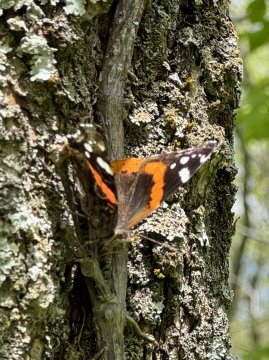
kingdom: Animalia
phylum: Arthropoda
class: Insecta
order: Lepidoptera
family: Nymphalidae
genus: Vanessa
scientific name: Vanessa atalanta
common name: Red Admiral
